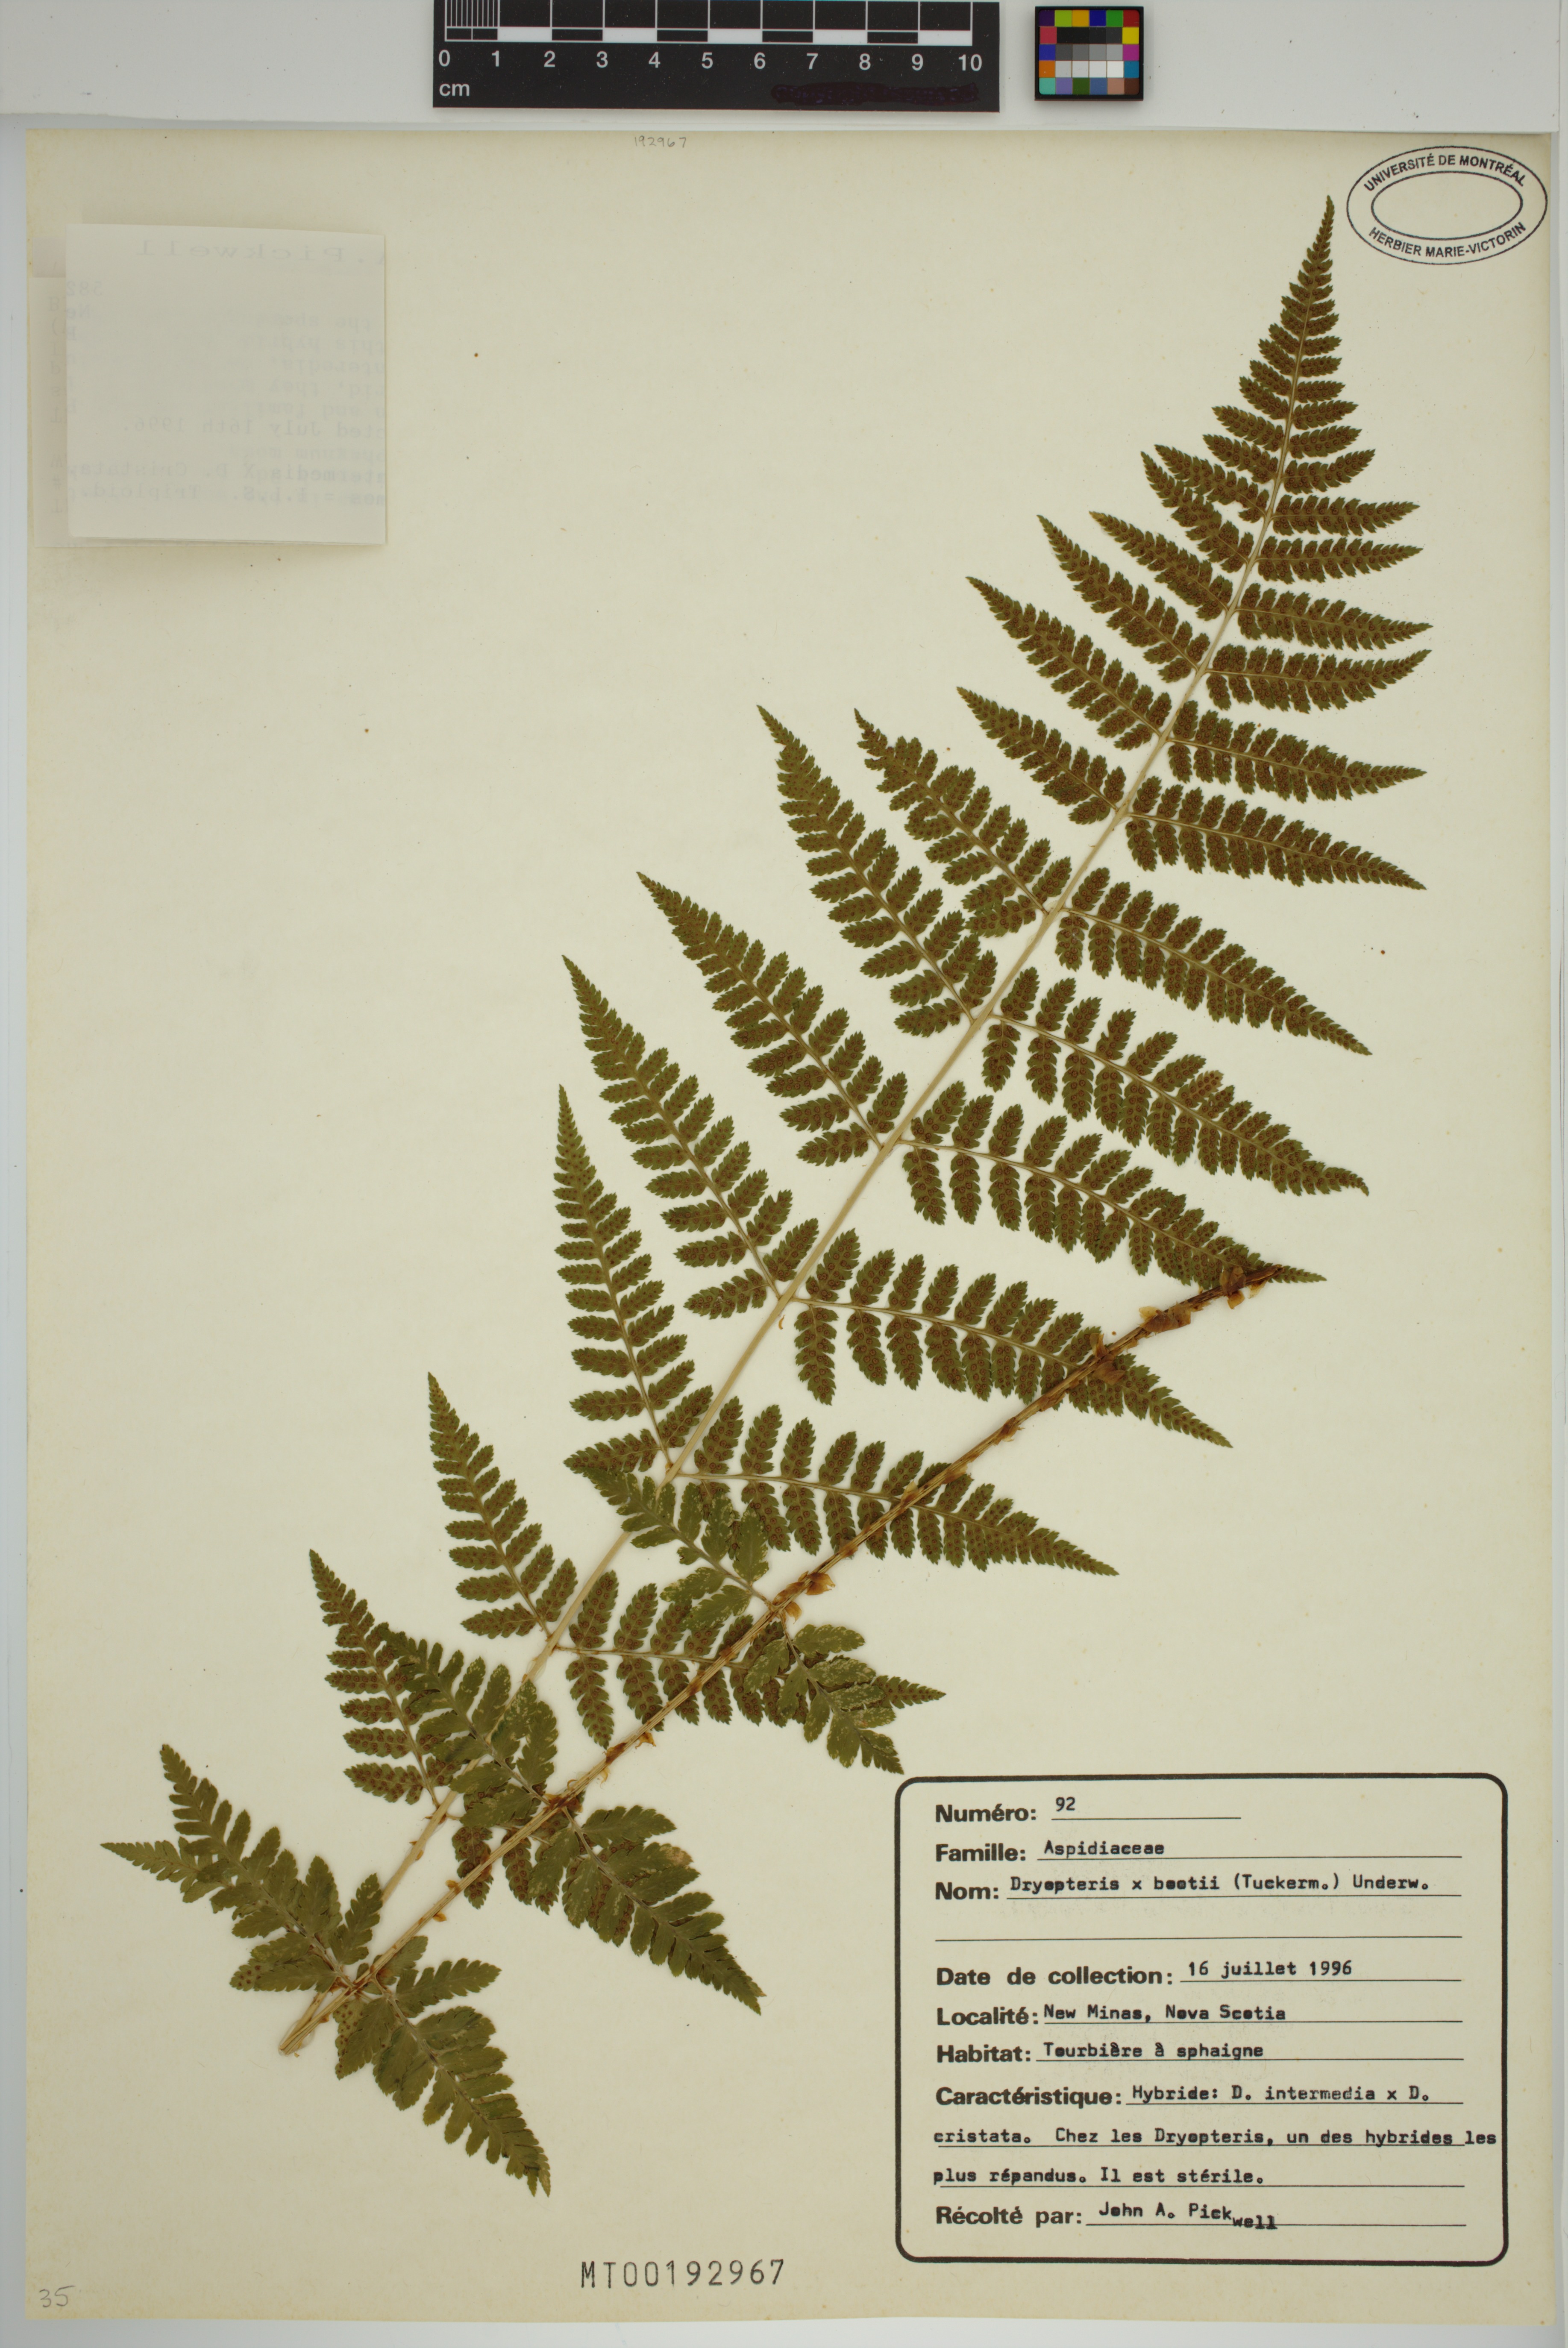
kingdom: Plantae
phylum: Tracheophyta
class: Polypodiopsida
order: Polypodiales
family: Dryopteridaceae
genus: Dryopteris
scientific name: Dryopteris boottii
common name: Boott's fern
